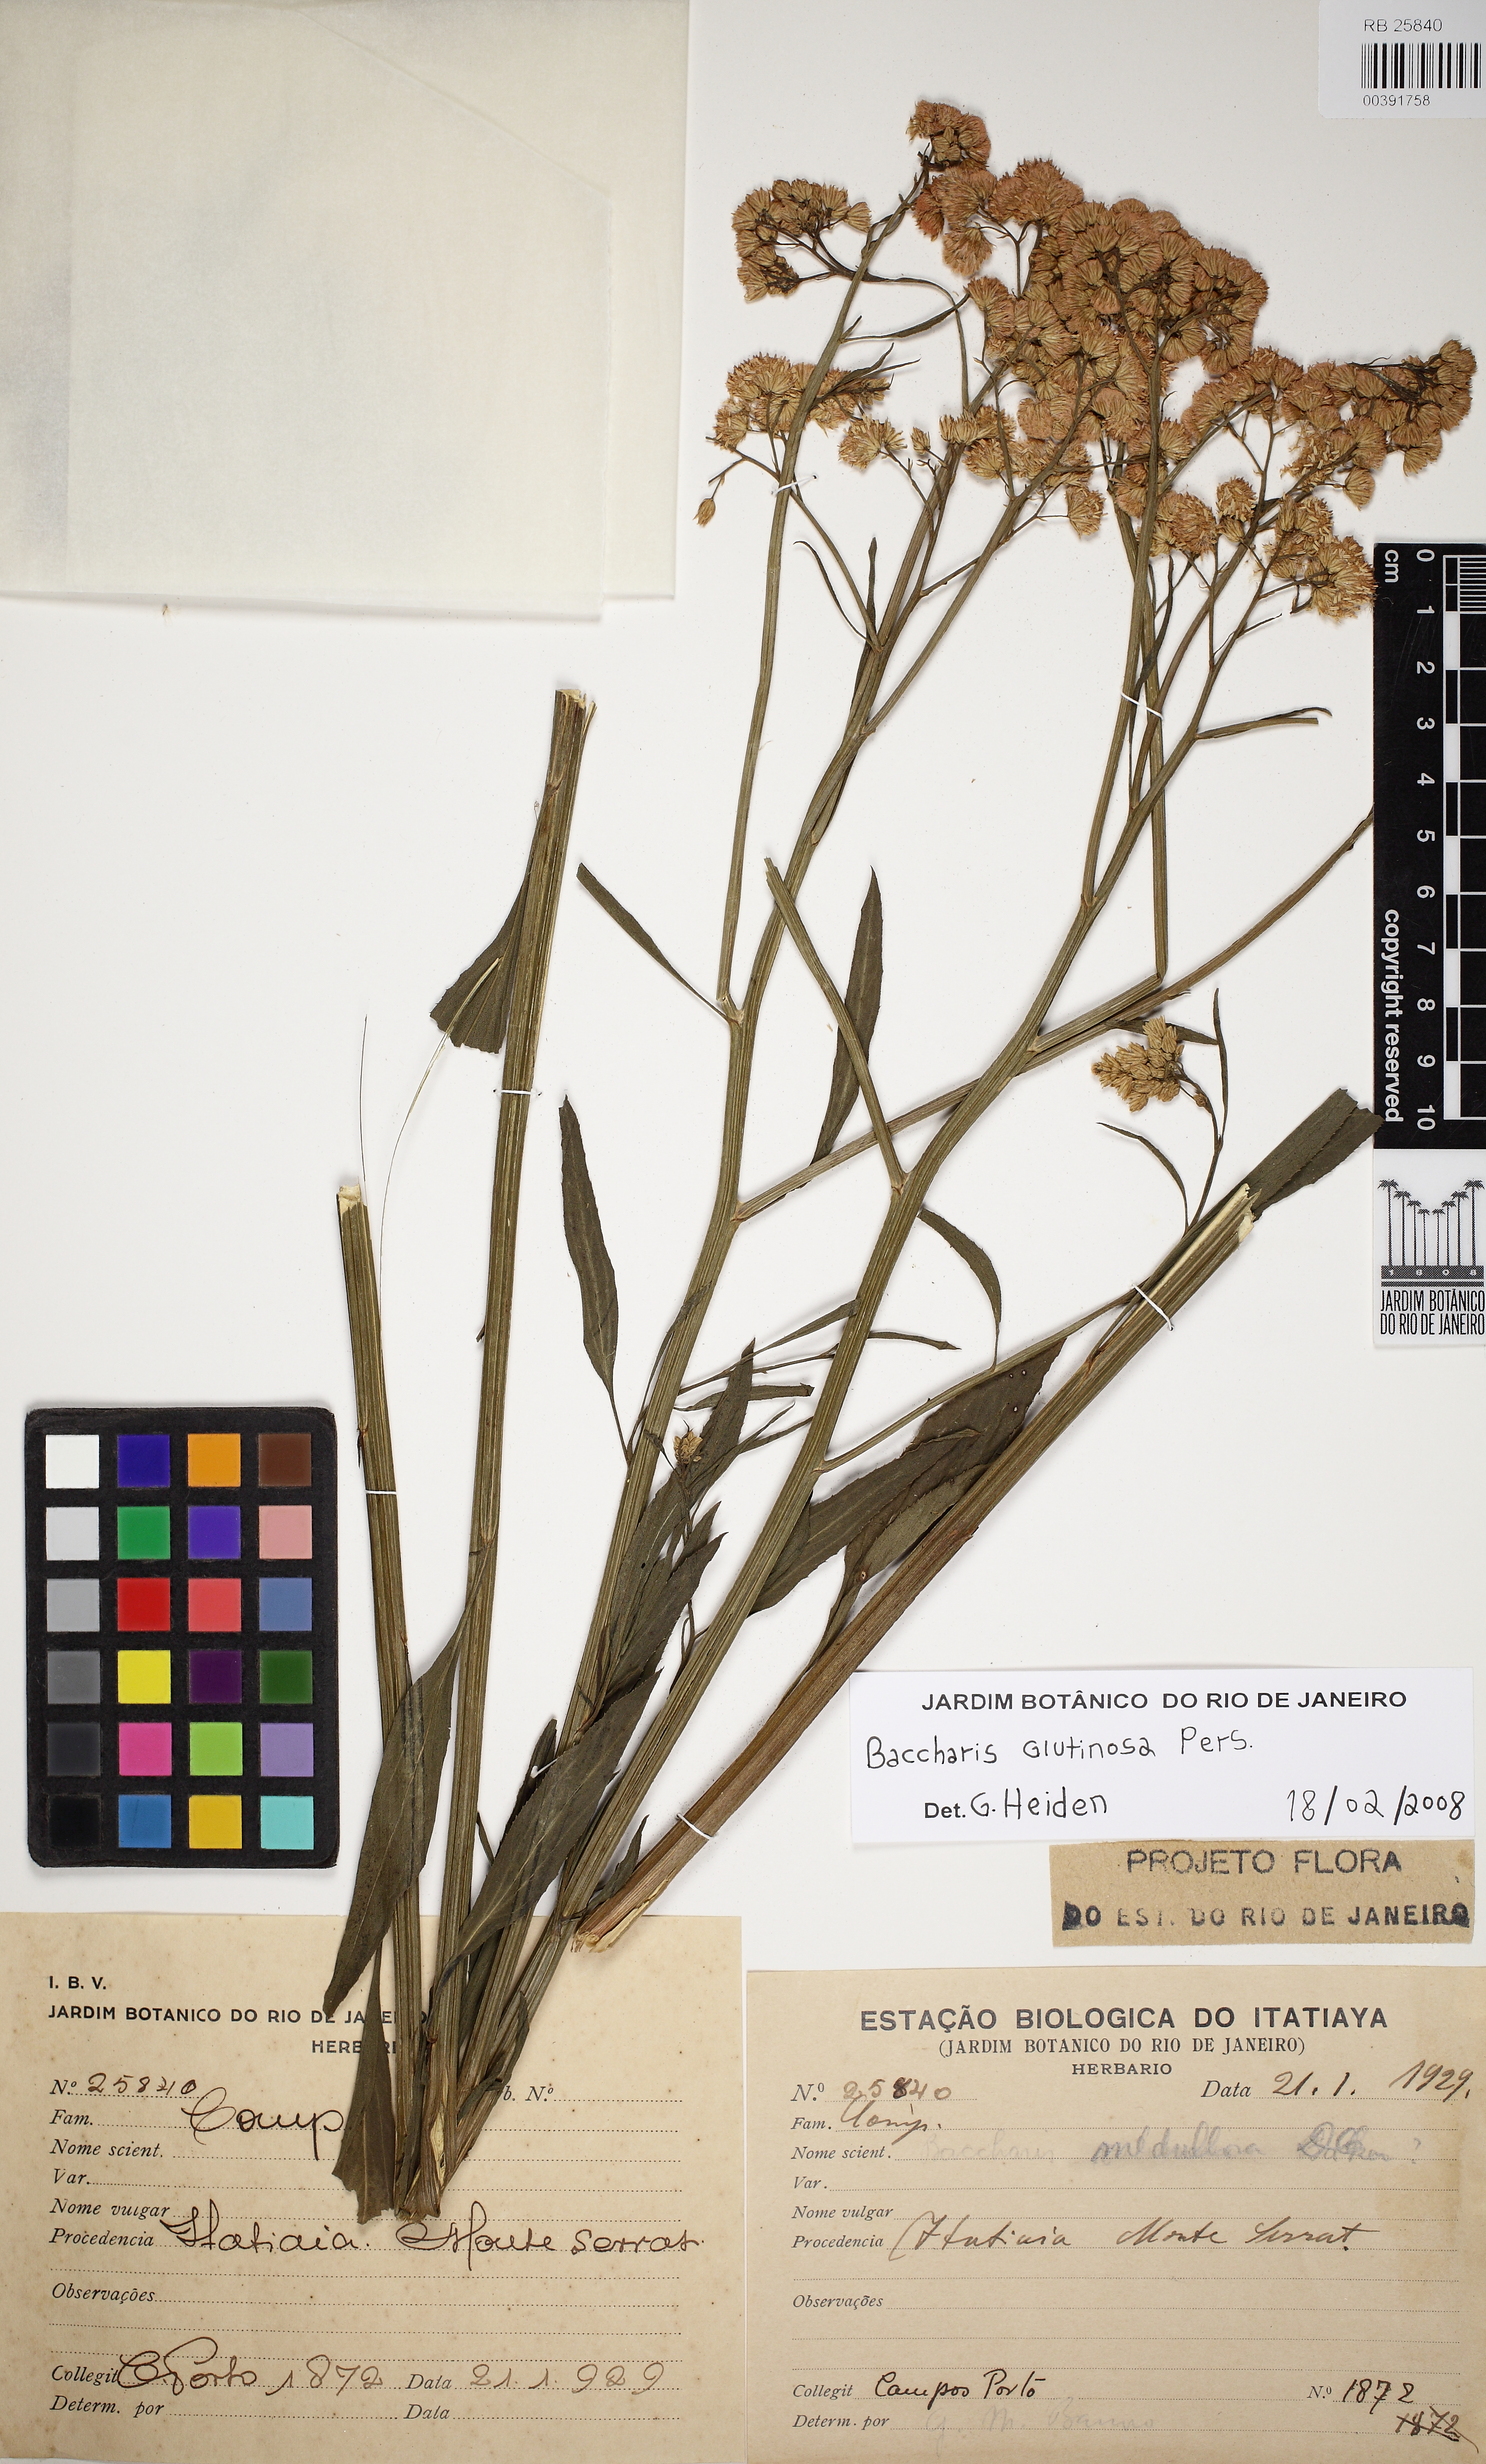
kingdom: Plantae
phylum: Tracheophyta
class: Magnoliopsida
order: Asterales
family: Asteraceae
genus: Baccharis
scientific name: Baccharis glutinosa
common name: Saltmarsh baccharis
